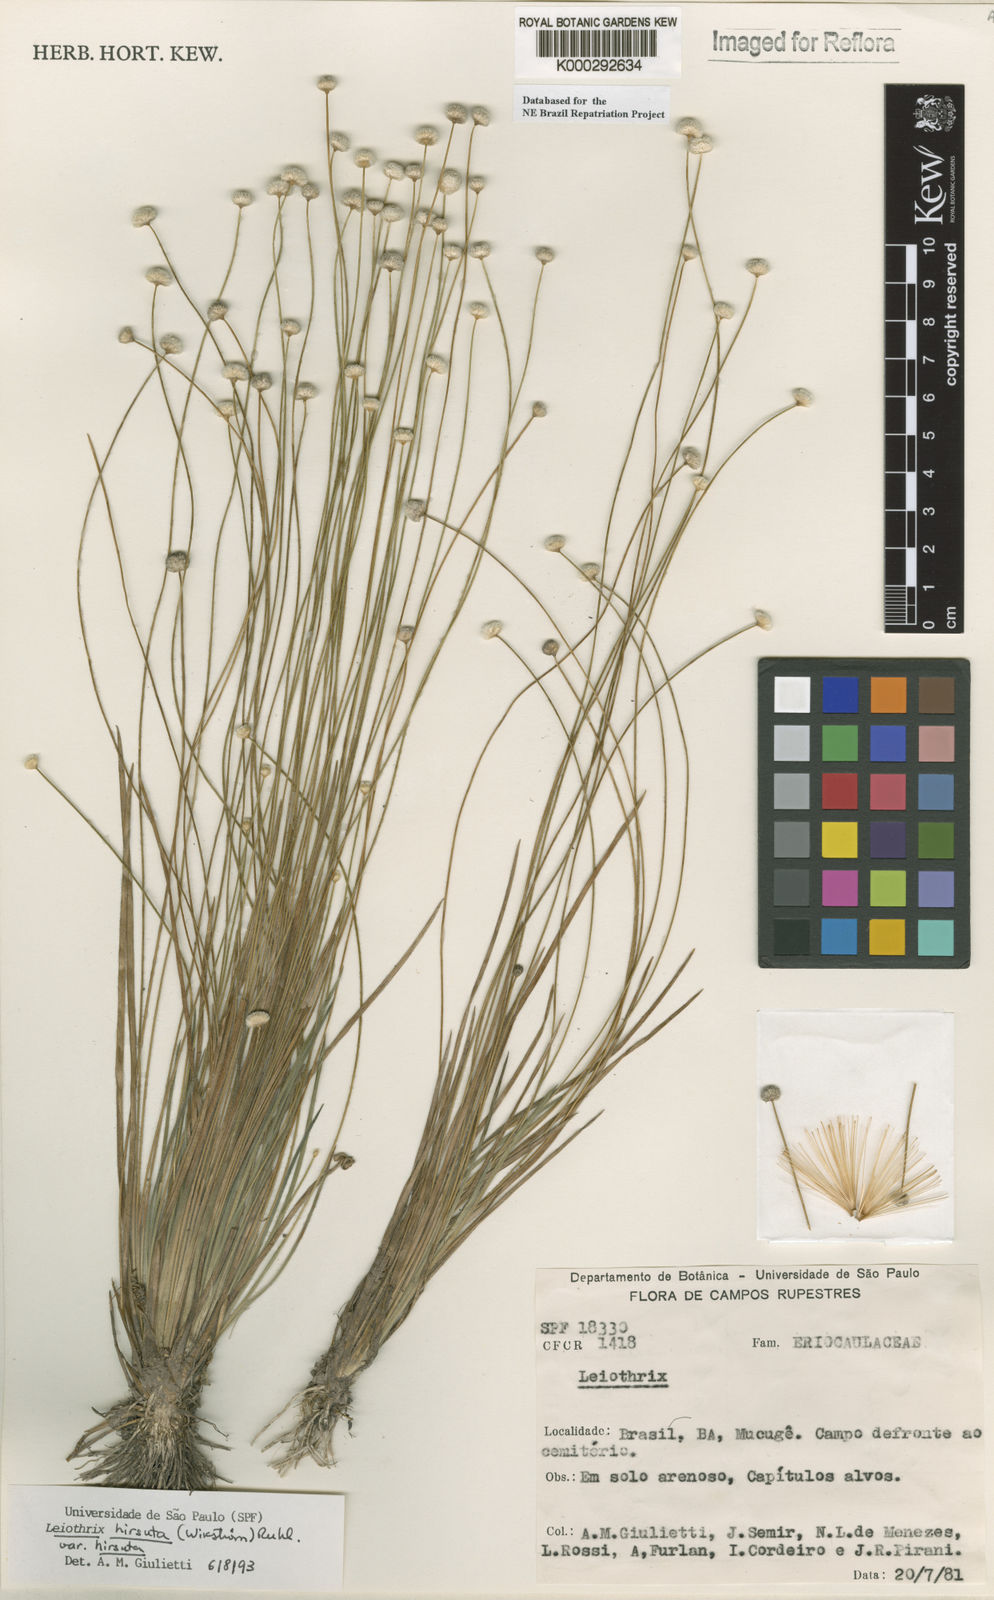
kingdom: Plantae
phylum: Tracheophyta
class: Liliopsida
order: Poales
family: Eriocaulaceae
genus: Leiothrix
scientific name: Leiothrix hirsuta
